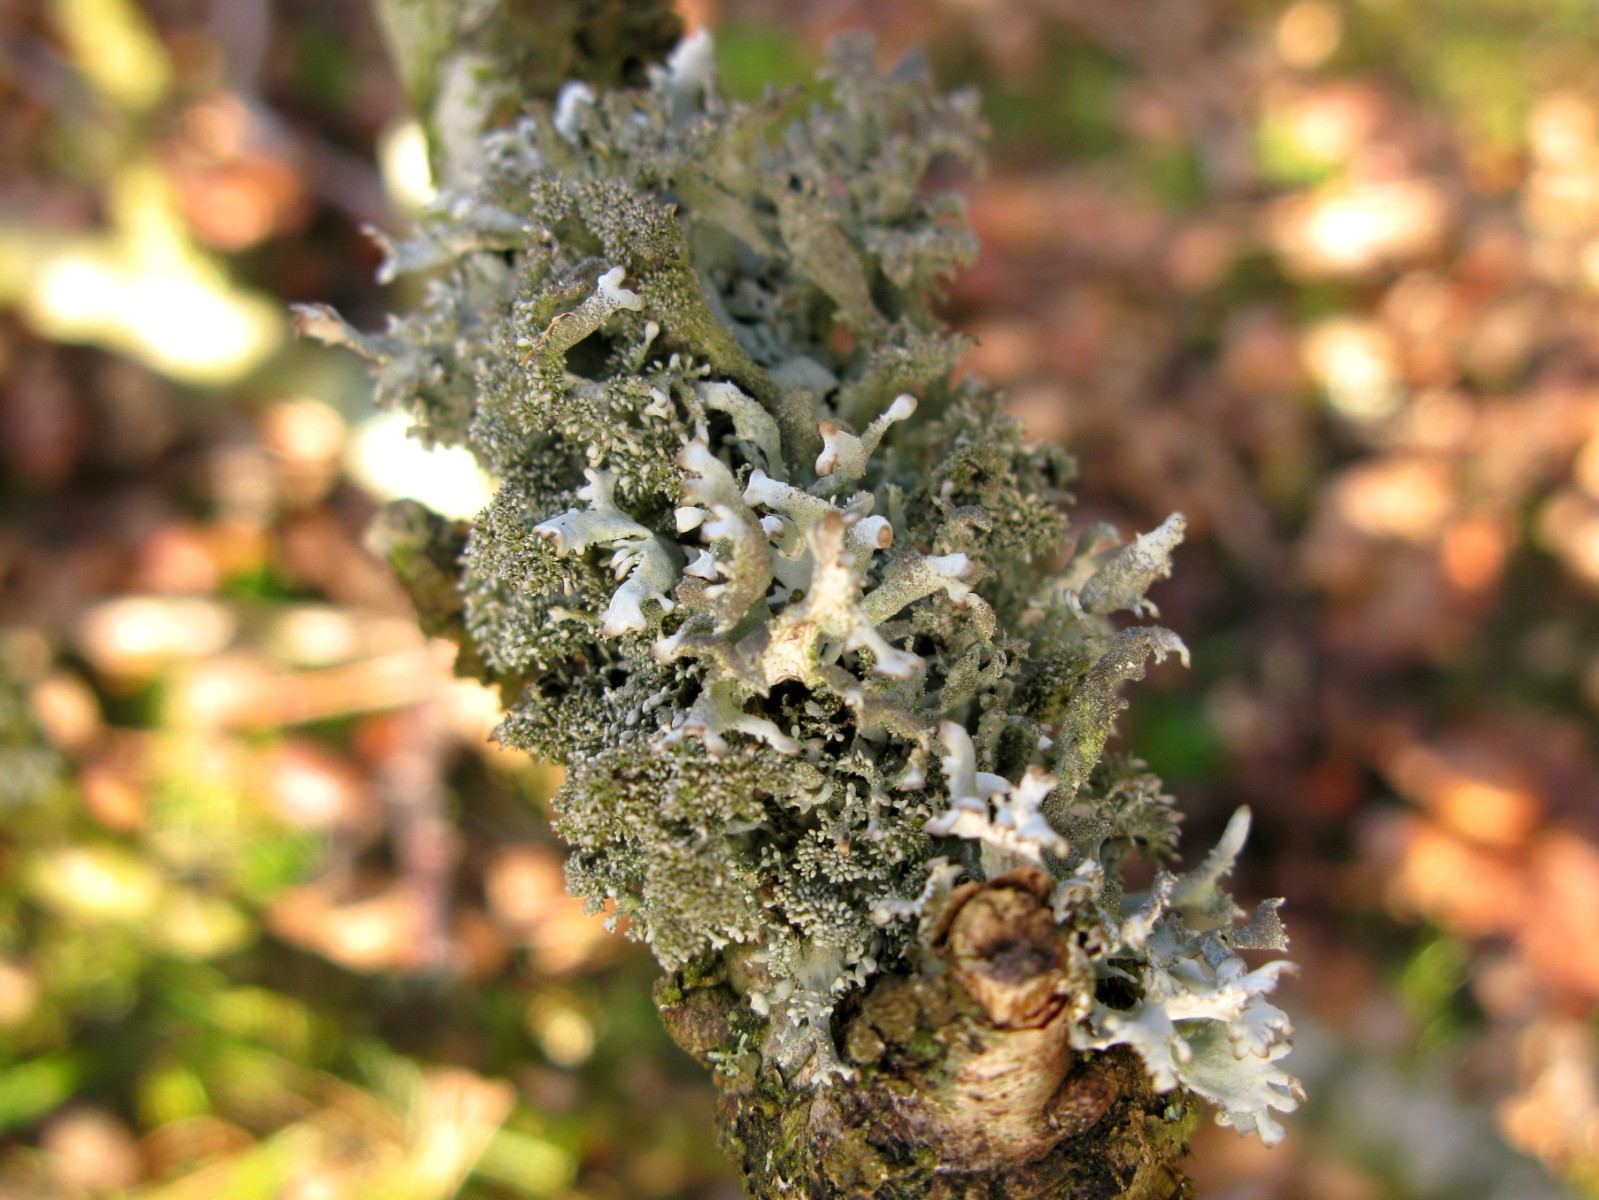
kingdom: Fungi
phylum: Ascomycota
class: Lecanoromycetes
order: Lecanorales
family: Parmeliaceae
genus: Pseudevernia
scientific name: Pseudevernia furfuracea
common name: grå fyrrelav
